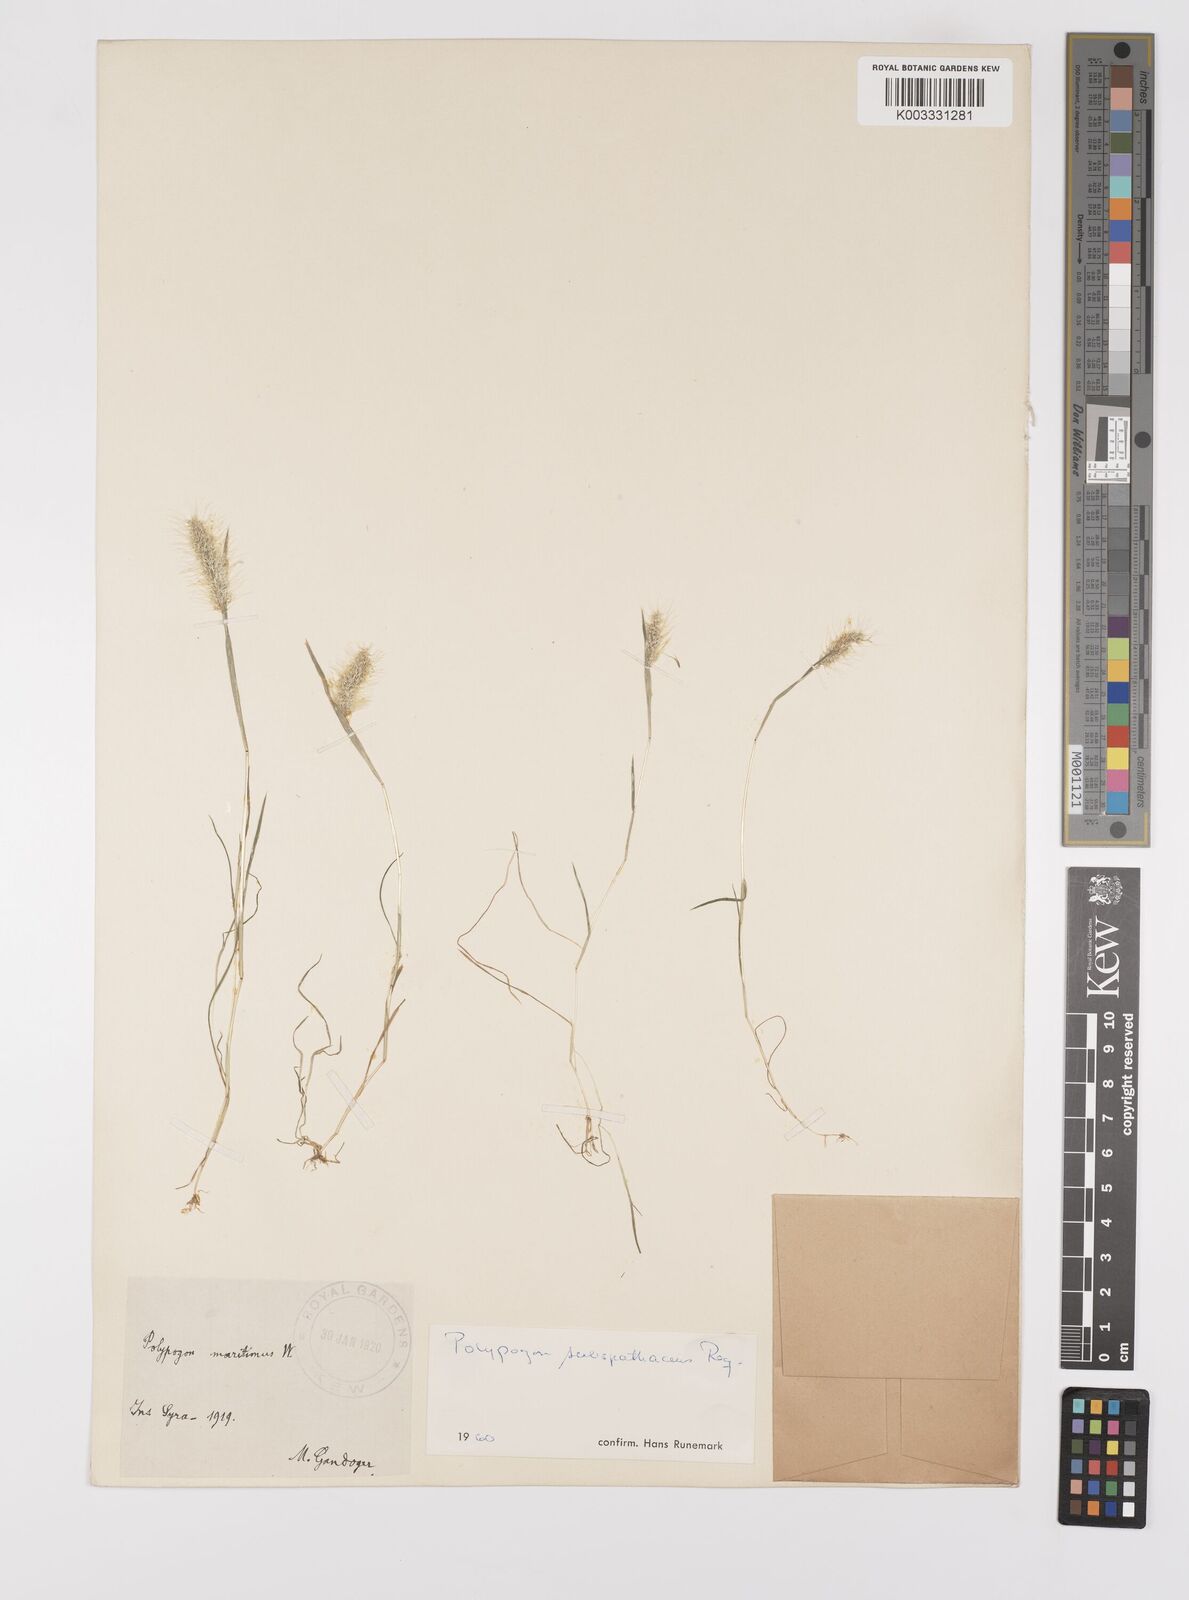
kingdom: Plantae
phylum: Tracheophyta
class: Liliopsida
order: Poales
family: Poaceae
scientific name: Poaceae
